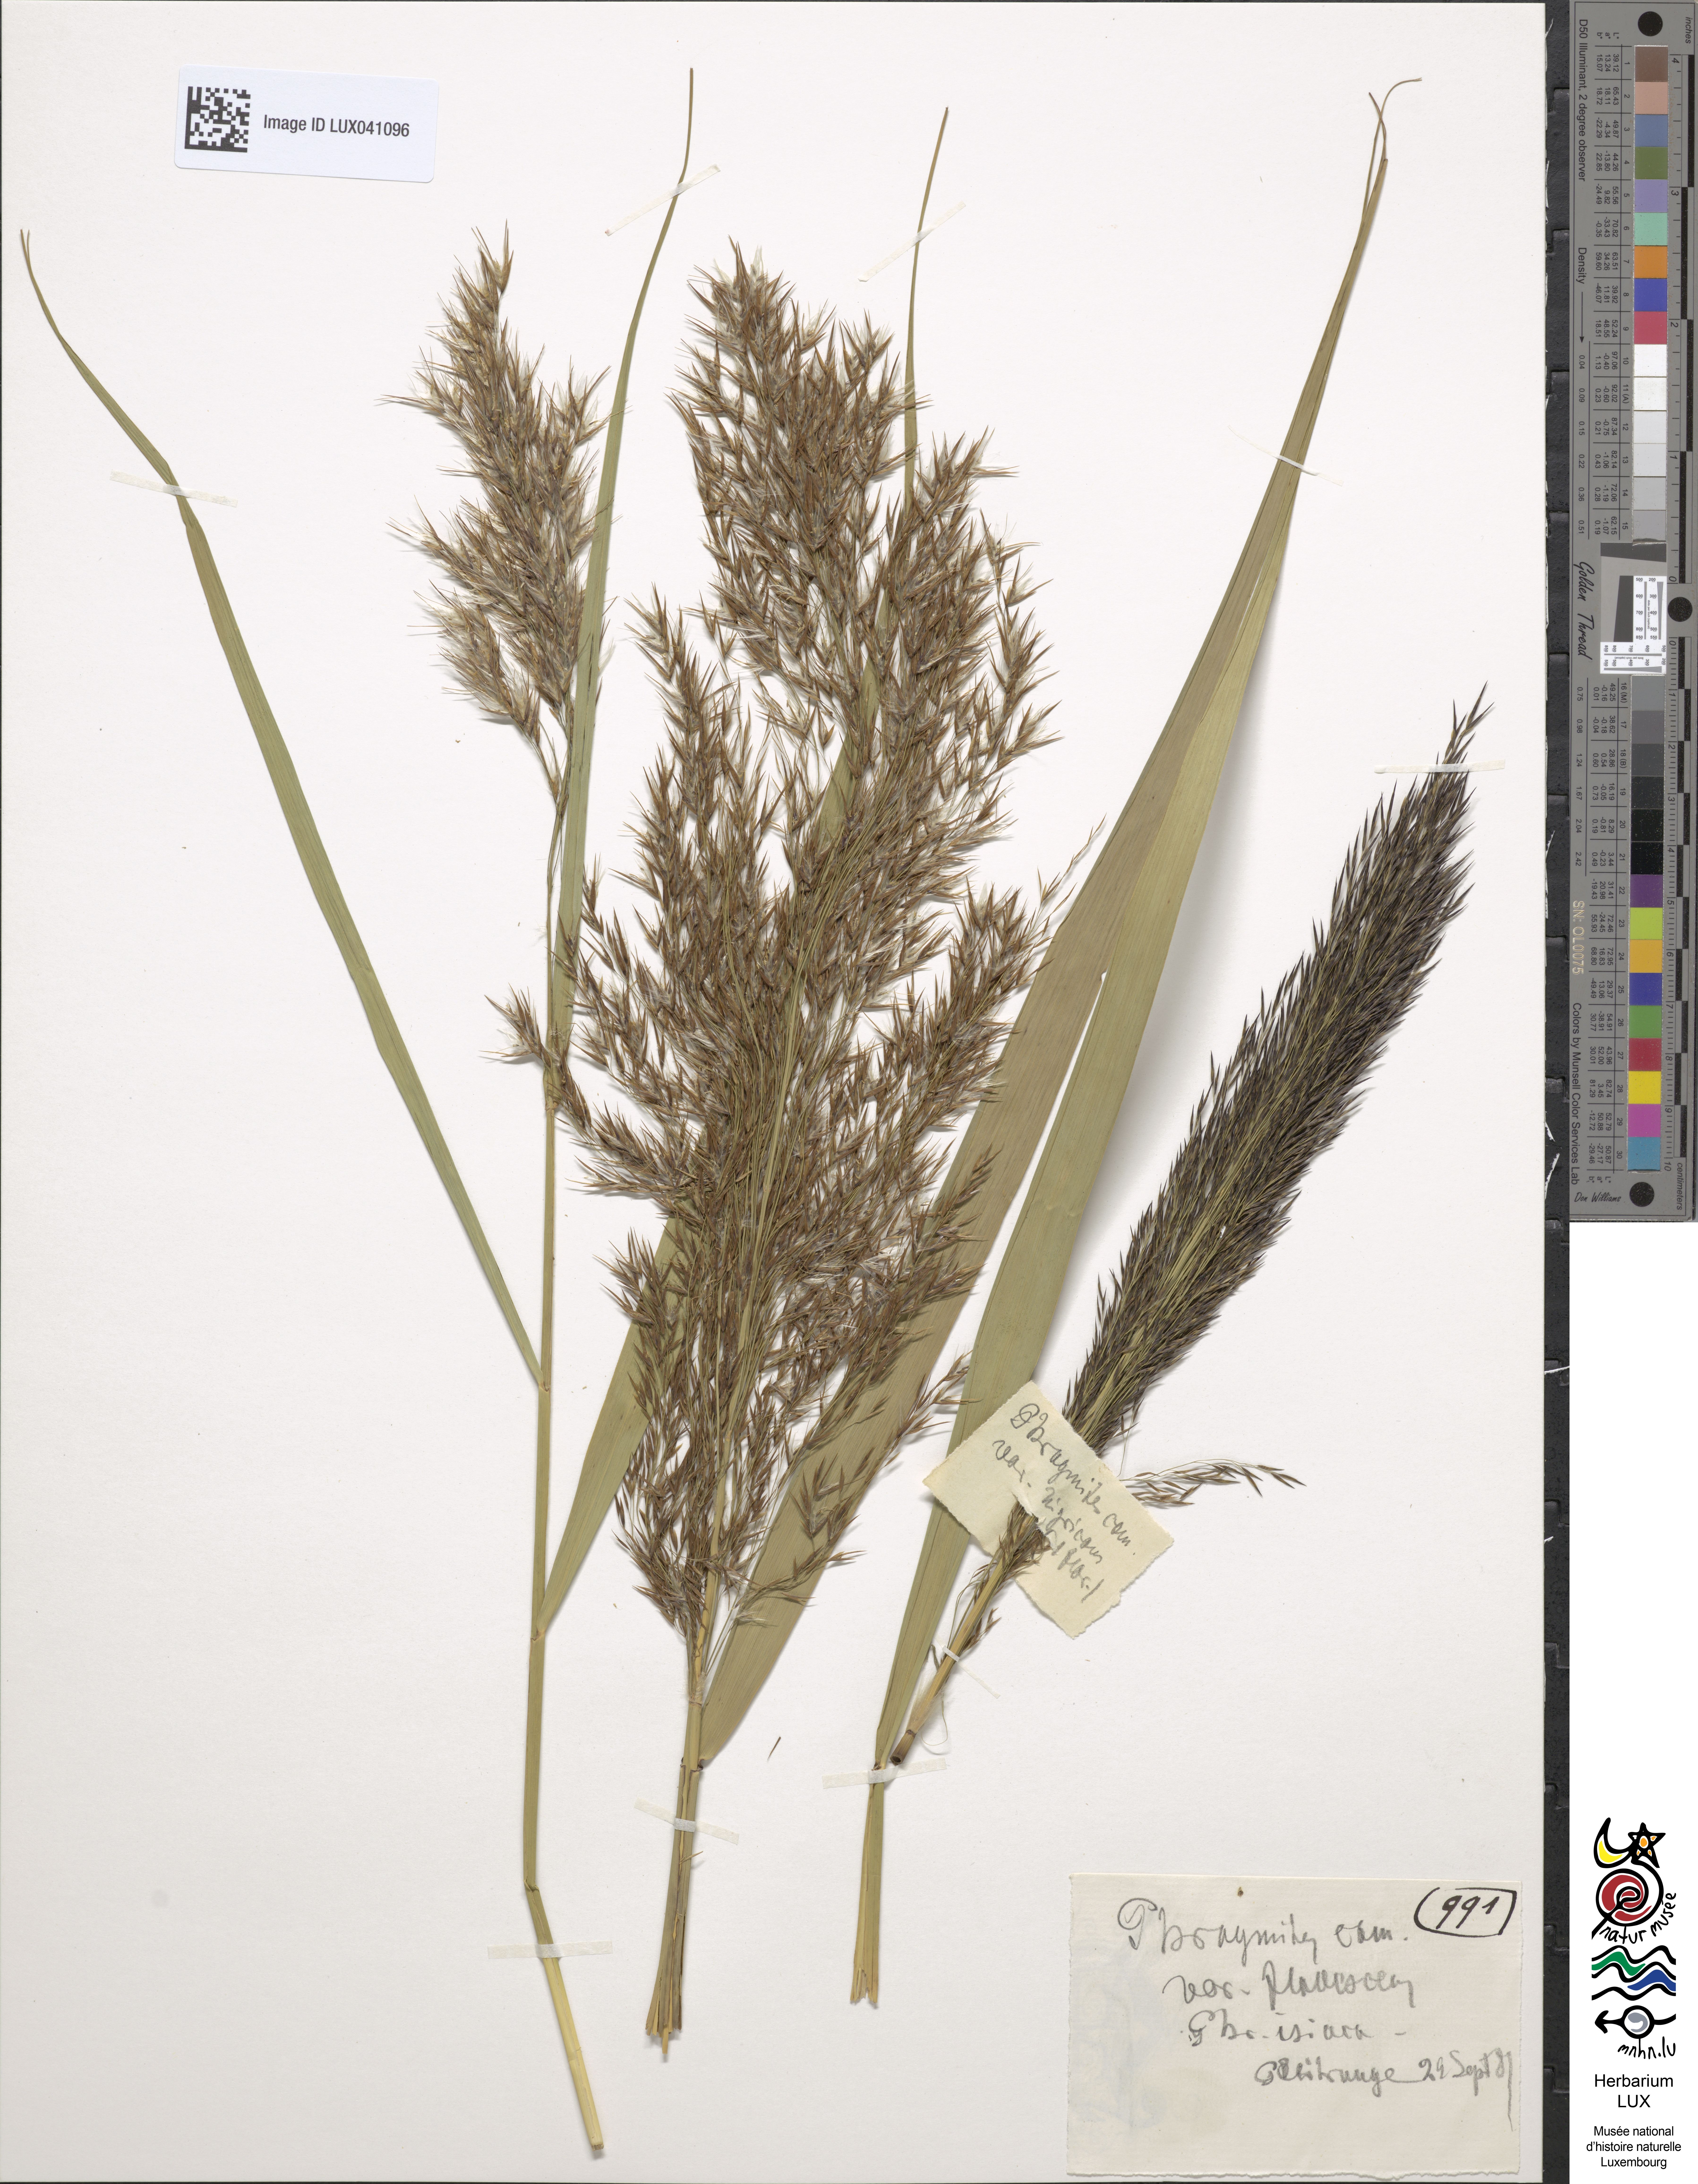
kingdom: Plantae
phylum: Tracheophyta
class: Liliopsida
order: Poales
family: Poaceae
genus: Phragmites
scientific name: Phragmites australis
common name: Common reed
